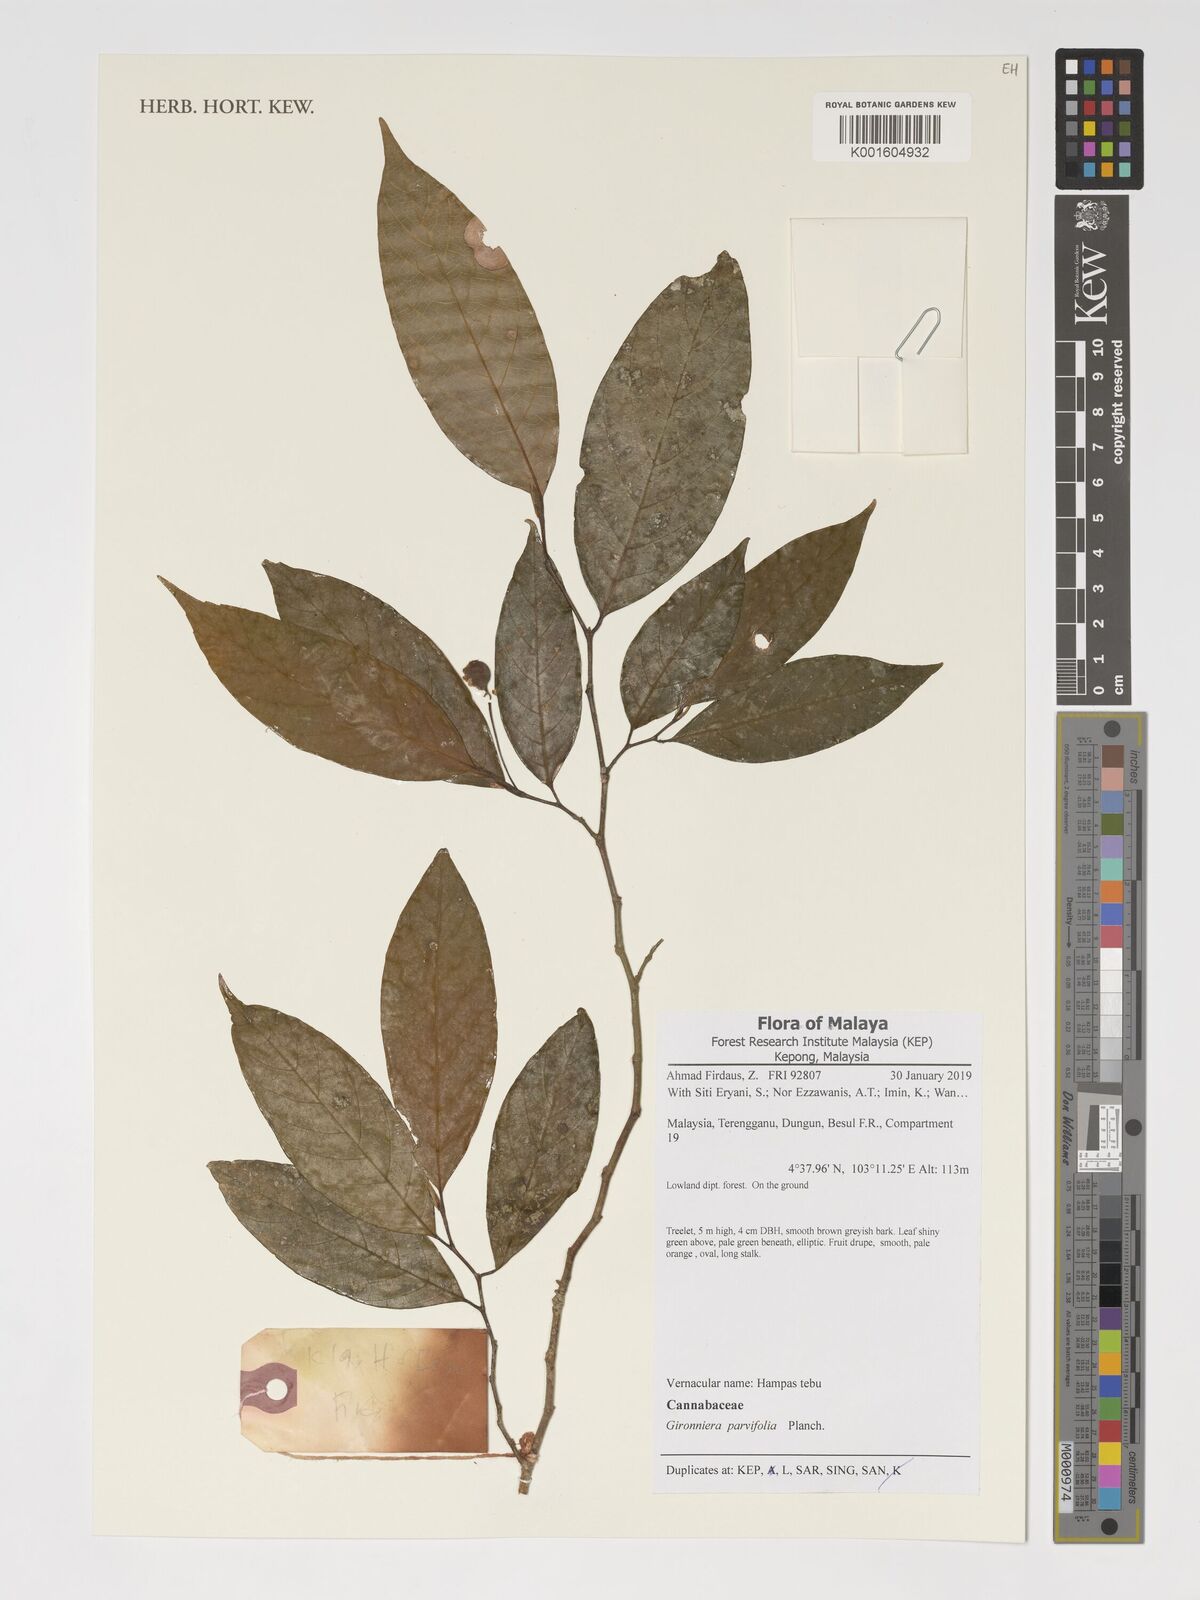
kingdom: Plantae
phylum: Tracheophyta
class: Magnoliopsida
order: Rosales
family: Cannabaceae
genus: Gironniera
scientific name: Gironniera parvifolia
